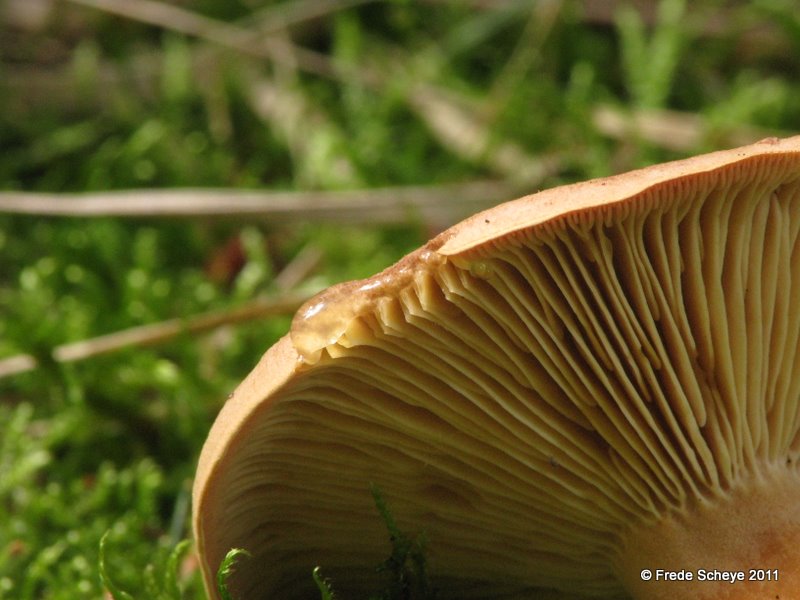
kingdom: Fungi
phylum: Basidiomycota
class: Agaricomycetes
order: Russulales
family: Russulaceae
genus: Lactarius
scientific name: Lactarius helvus
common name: mose-mælkehat
